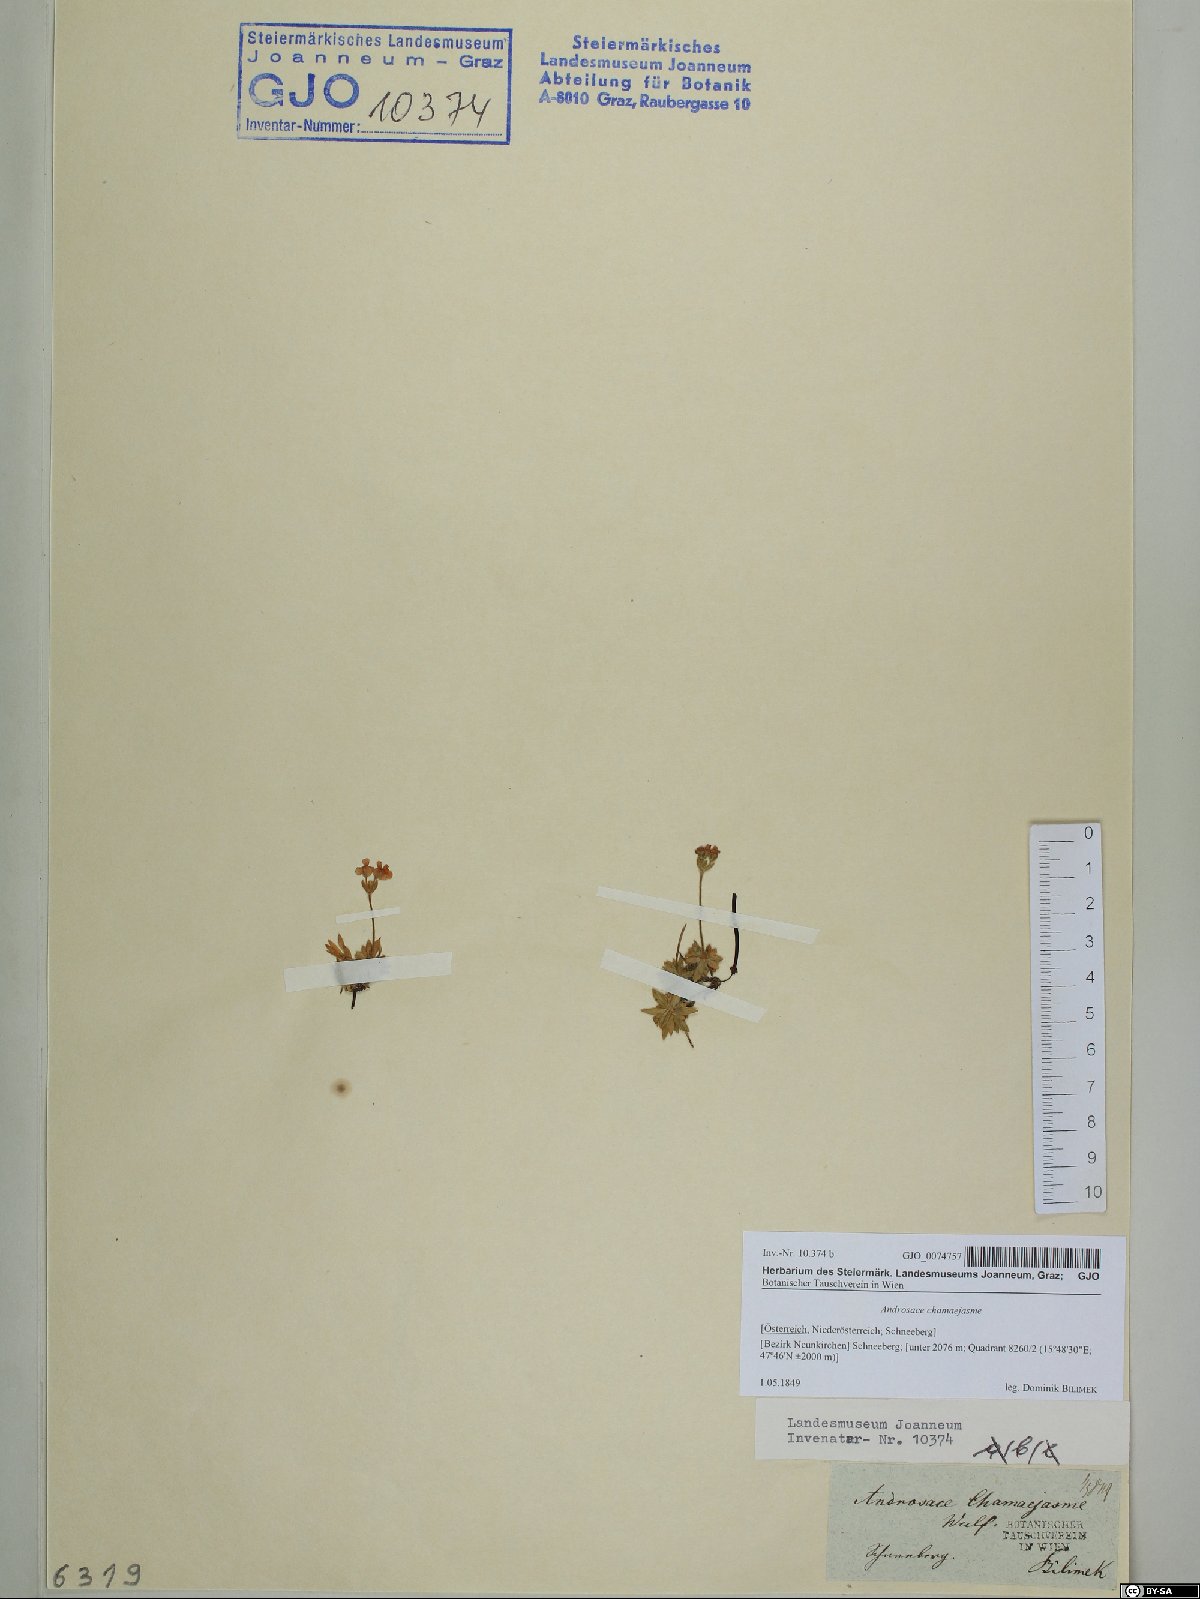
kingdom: Plantae
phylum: Tracheophyta
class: Magnoliopsida
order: Ericales
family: Primulaceae
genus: Androsace
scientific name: Androsace chamaejasme
